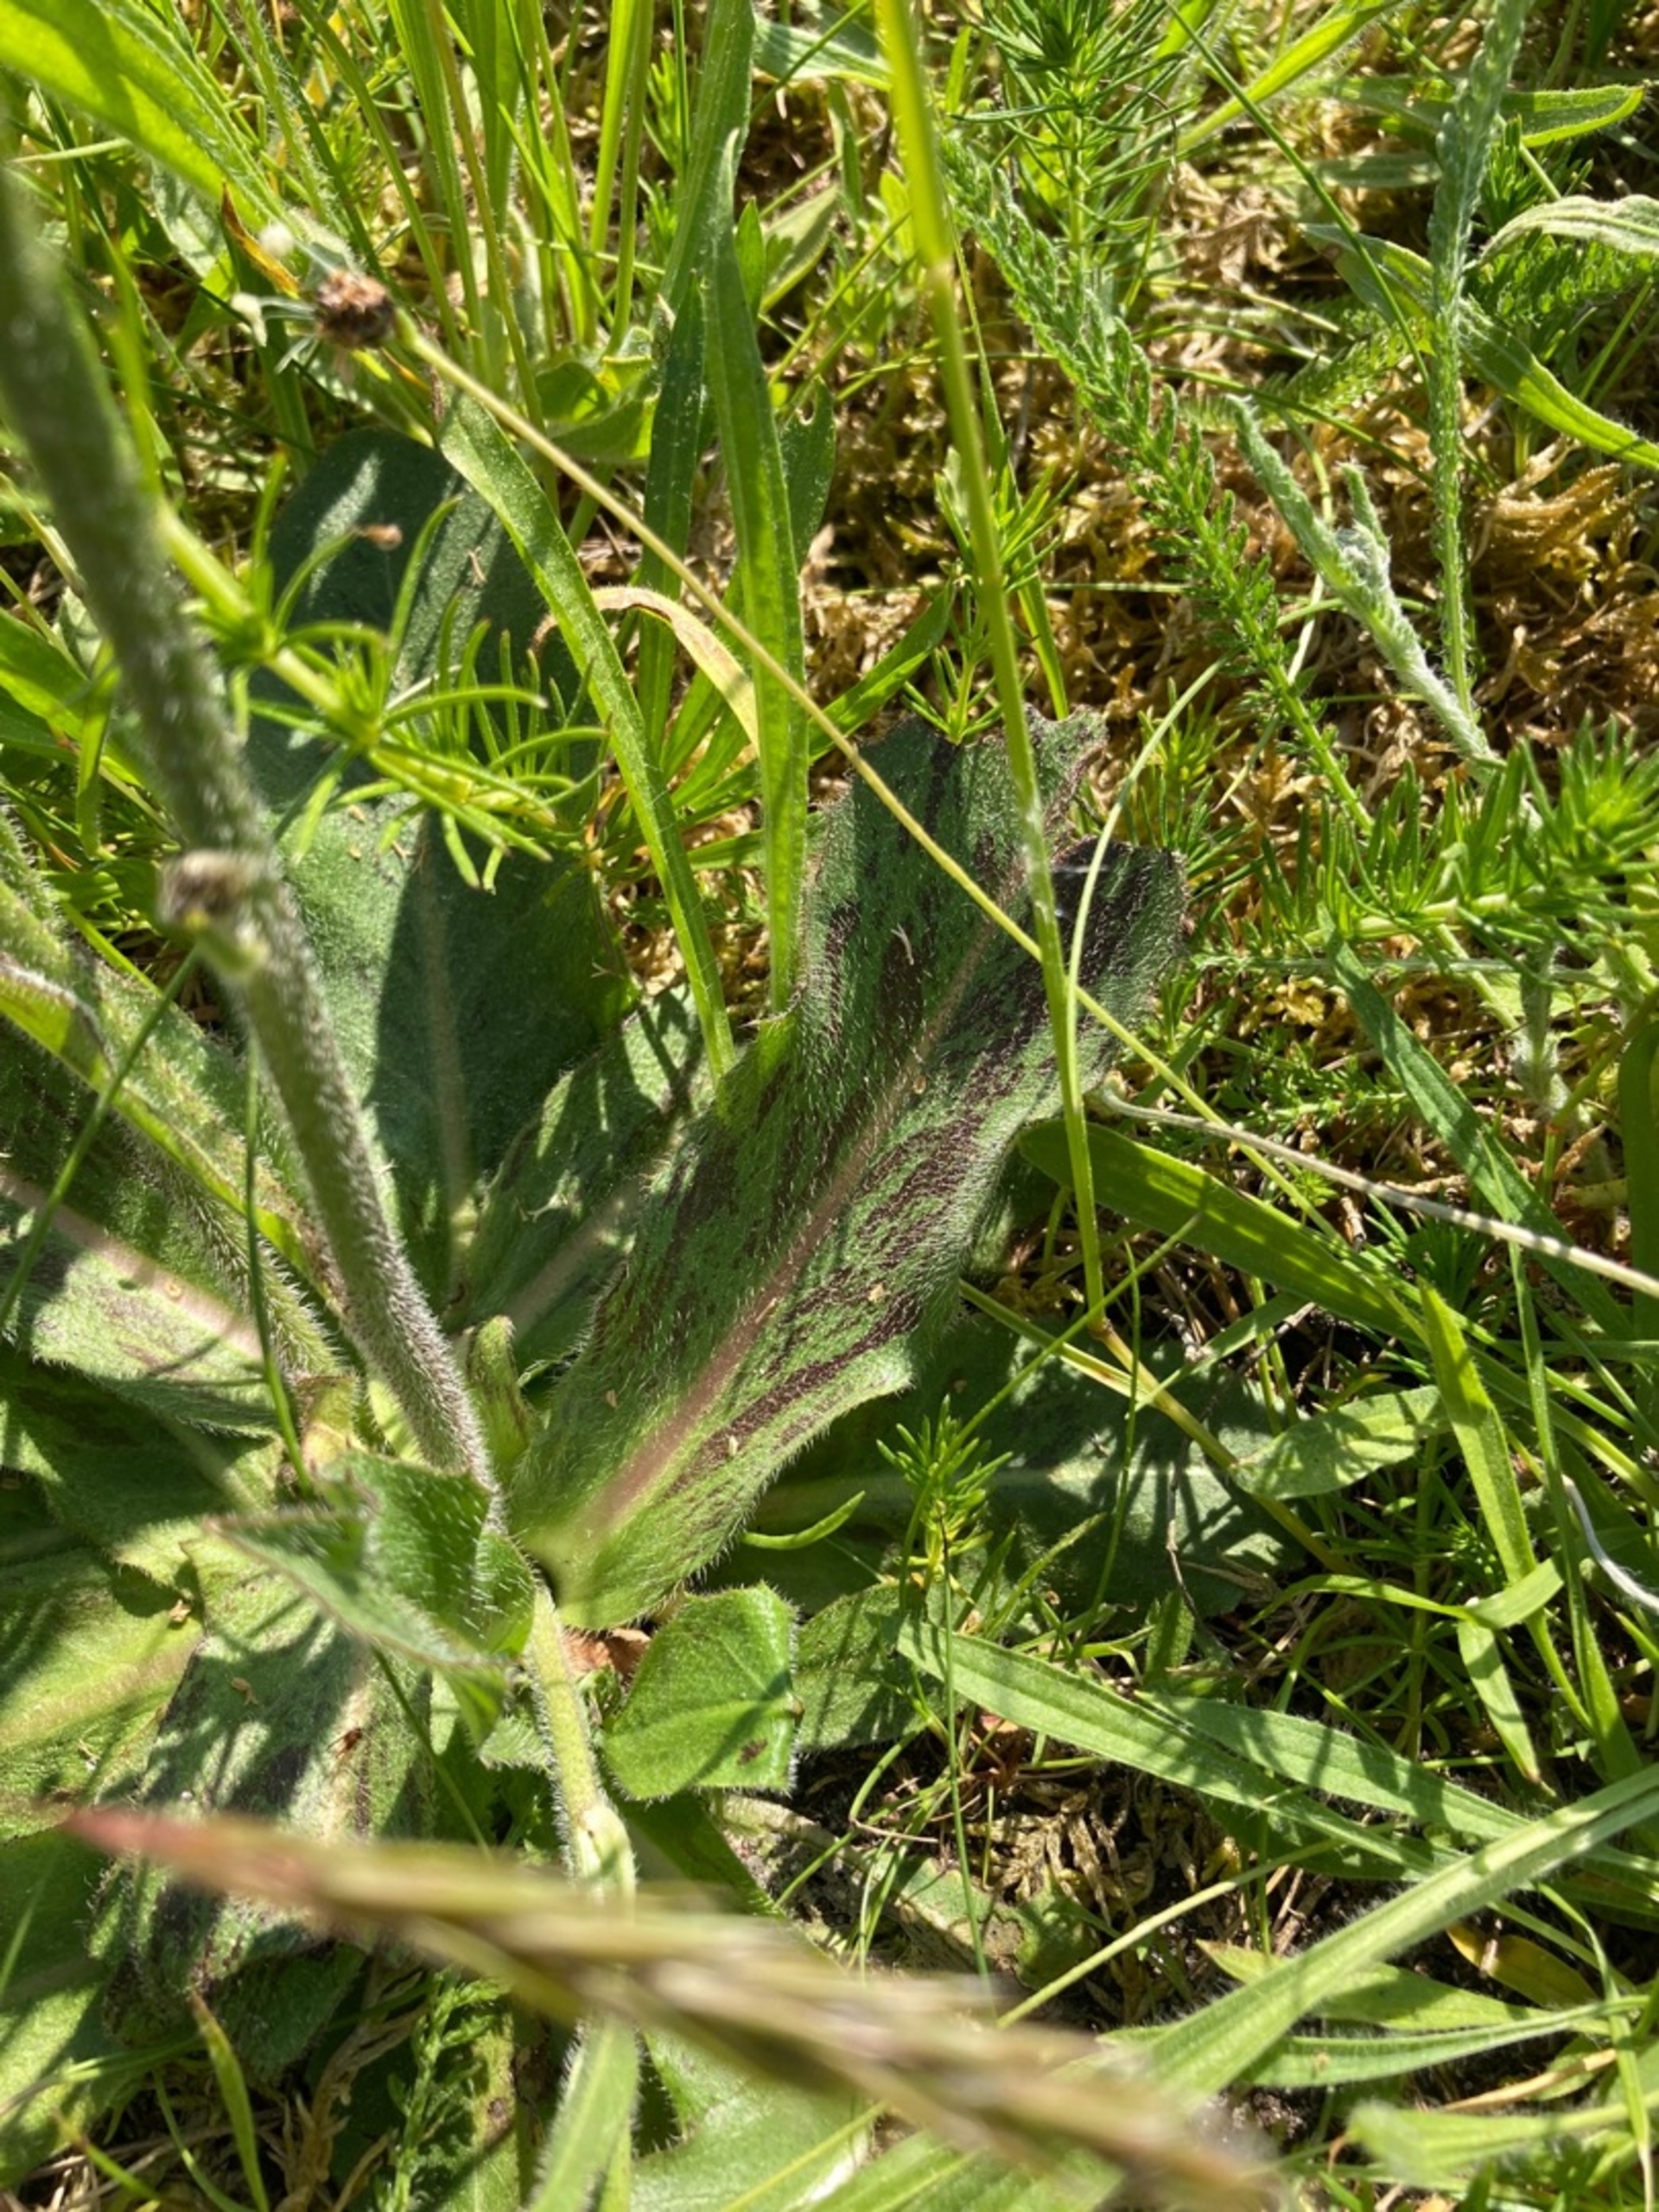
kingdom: Plantae
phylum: Tracheophyta
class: Magnoliopsida
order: Asterales
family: Asteraceae
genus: Trommsdorffia
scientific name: Trommsdorffia maculata
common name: Plettet kongepen
